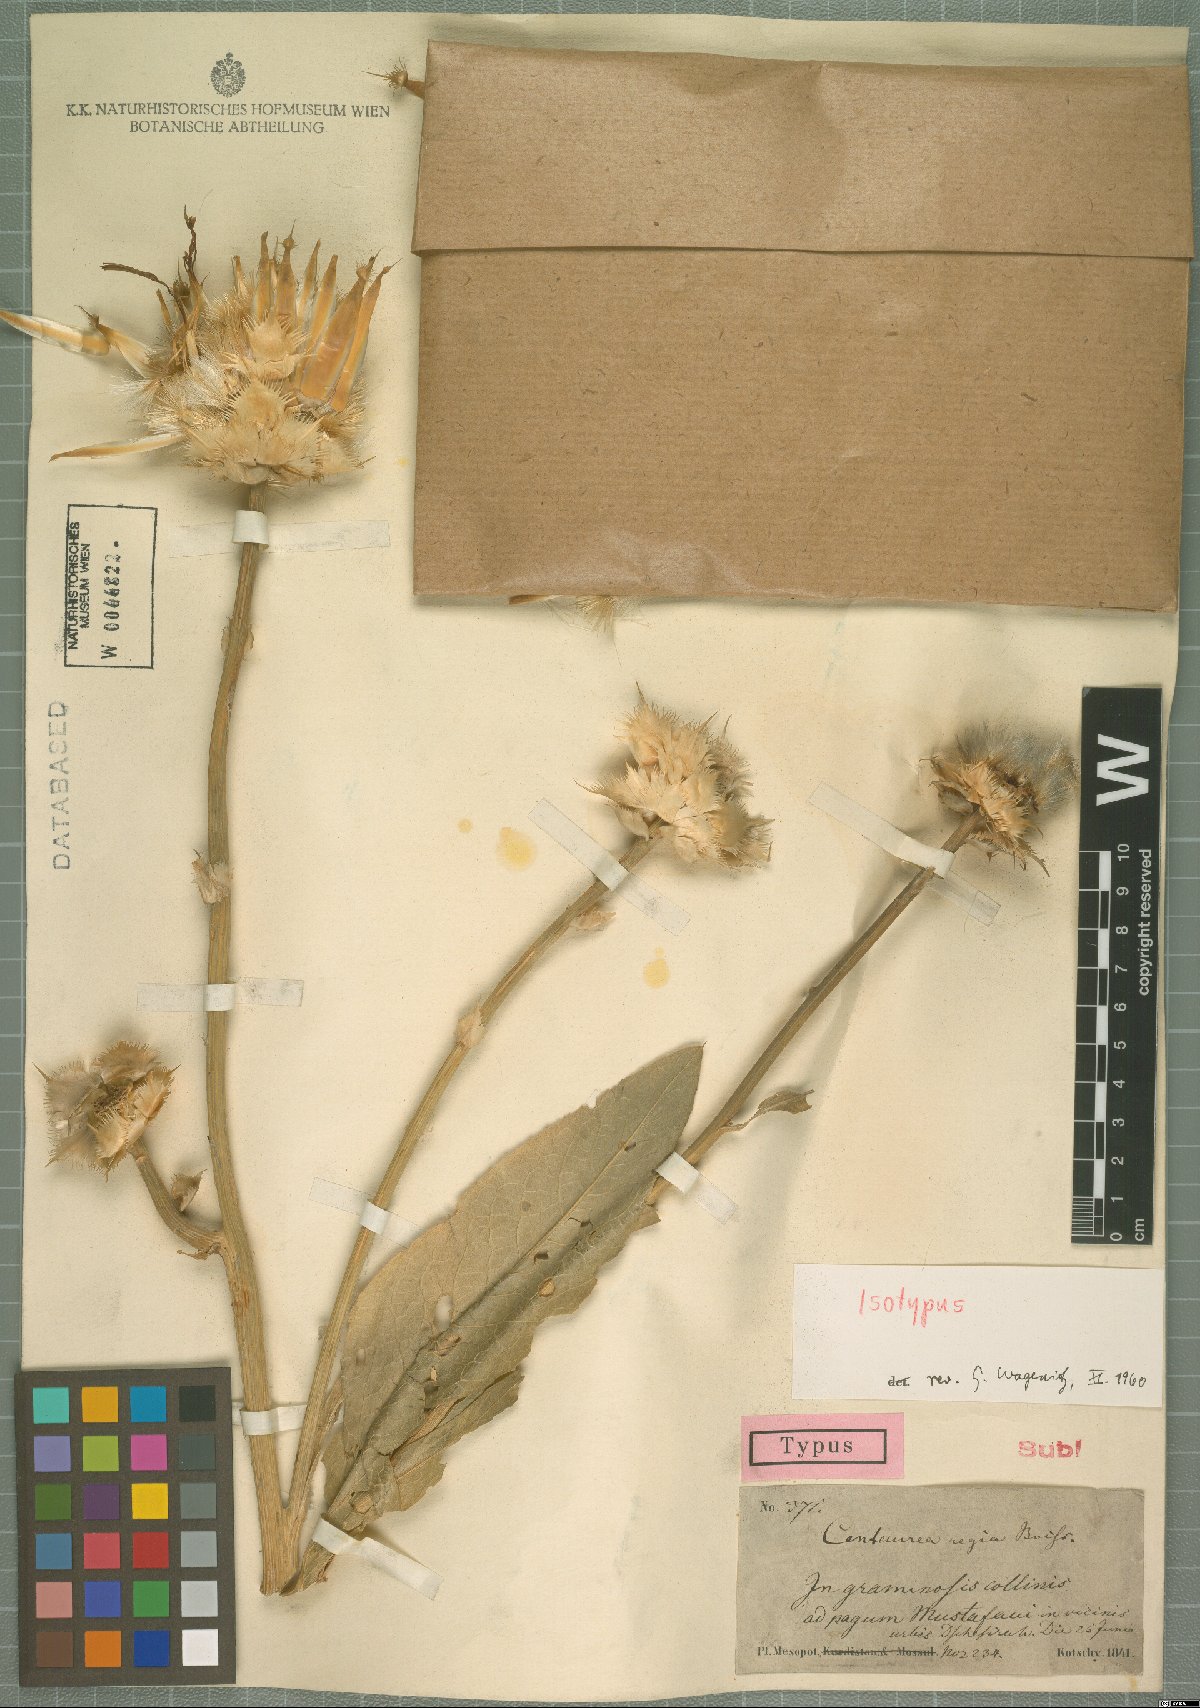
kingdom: Plantae
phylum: Tracheophyta
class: Magnoliopsida
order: Asterales
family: Asteraceae
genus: Centaurea
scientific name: Centaurea regia
